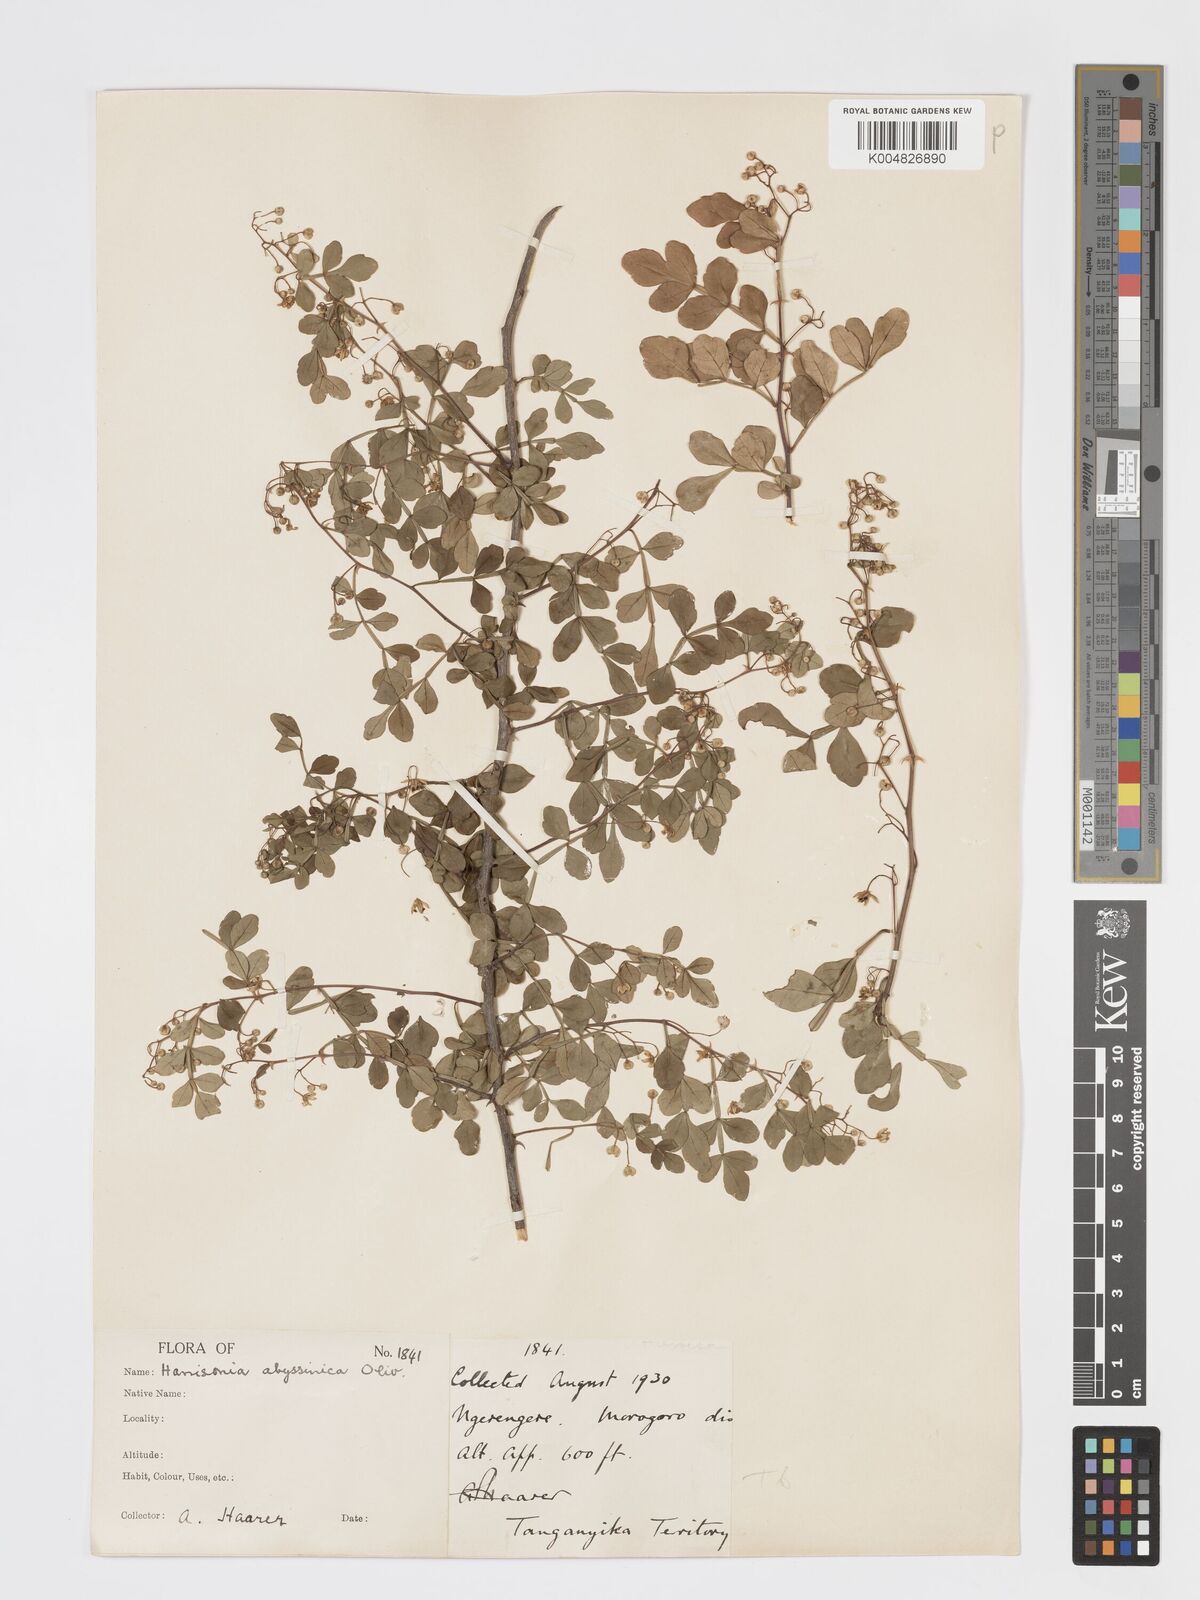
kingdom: Plantae
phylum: Tracheophyta
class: Magnoliopsida
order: Sapindales
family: Rutaceae
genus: Harrisonia
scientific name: Harrisonia abyssinica
